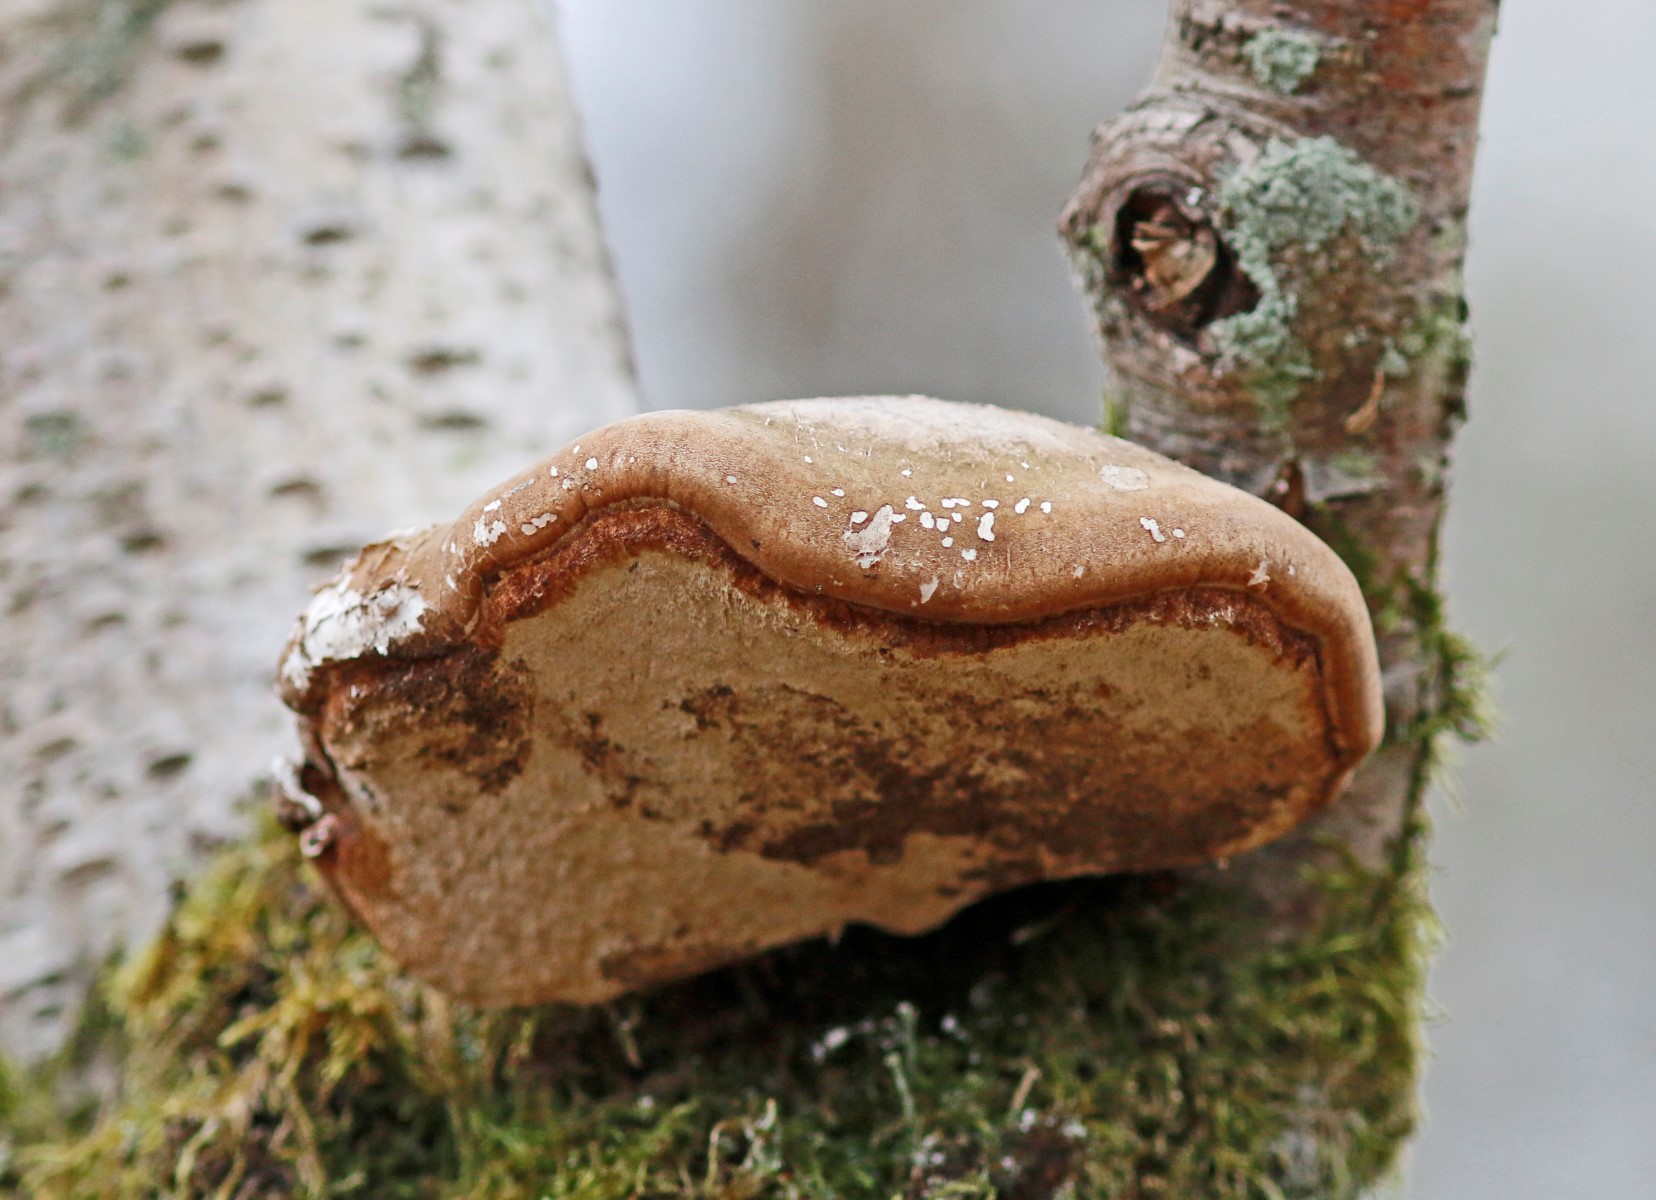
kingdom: Fungi
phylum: Basidiomycota
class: Agaricomycetes
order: Polyporales
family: Fomitopsidaceae
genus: Fomitopsis
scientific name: Fomitopsis betulina
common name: birkeporesvamp
